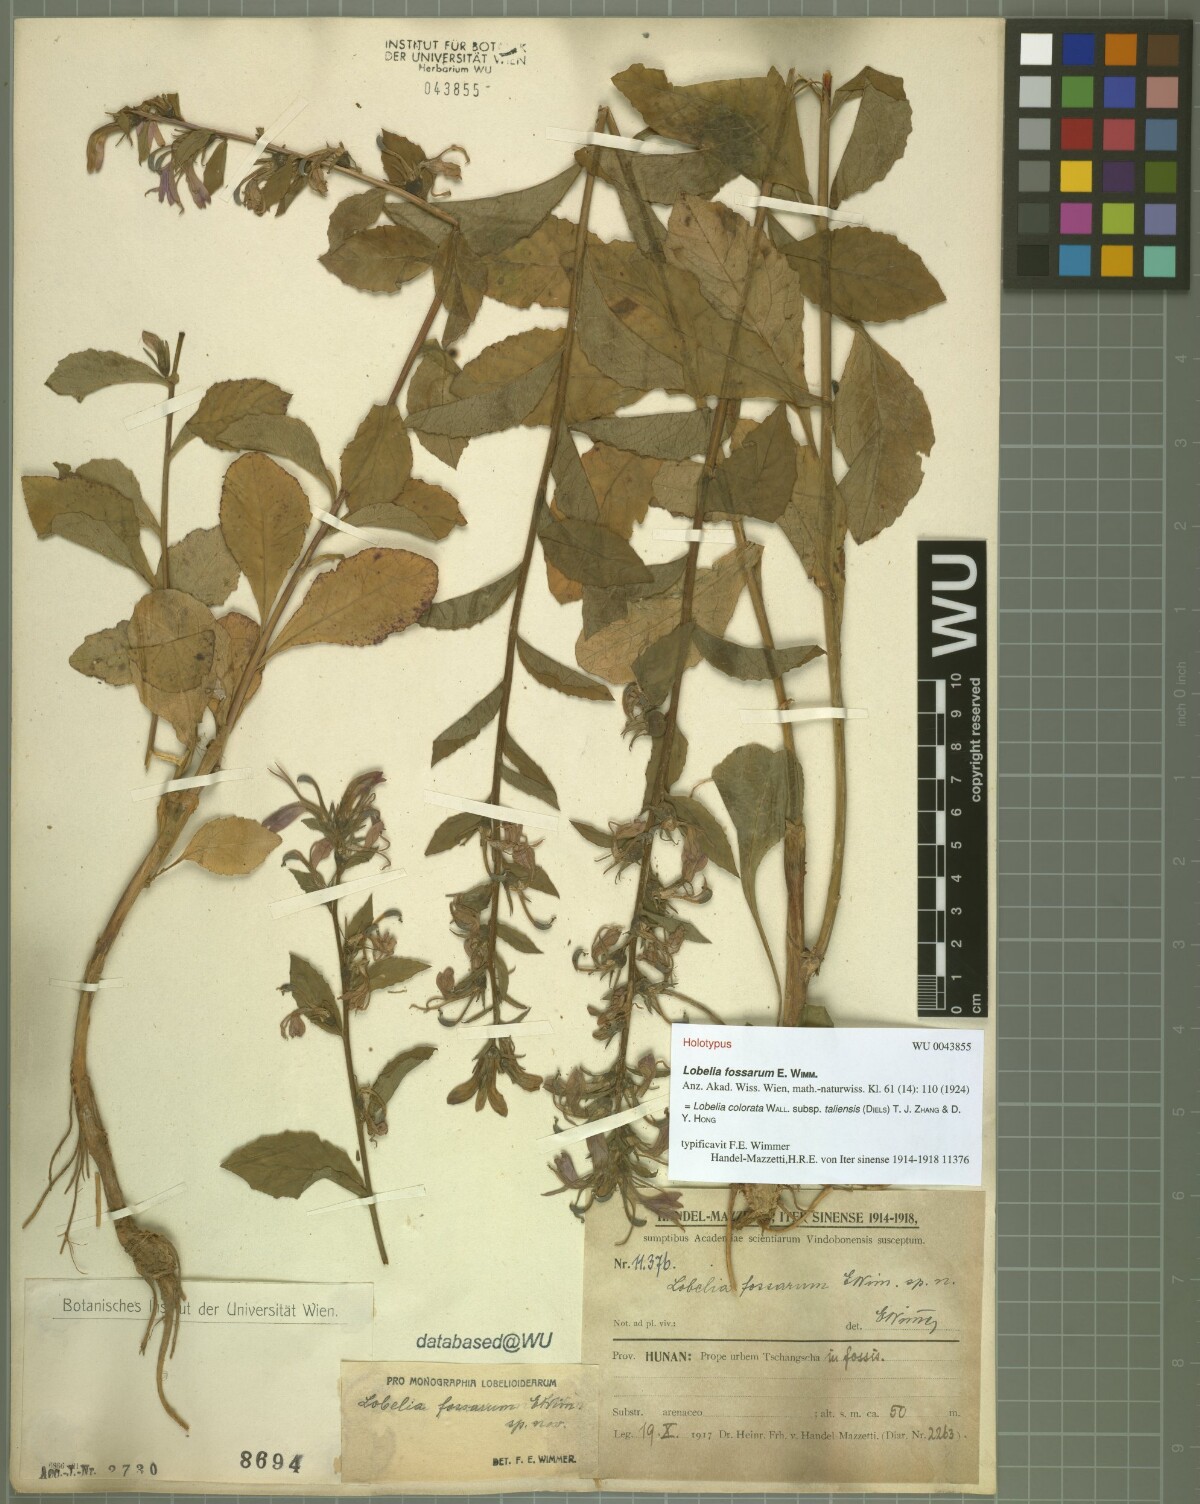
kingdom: Plantae
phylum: Tracheophyta
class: Magnoliopsida
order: Asterales
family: Campanulaceae
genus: Lobelia
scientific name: Lobelia taliensis
